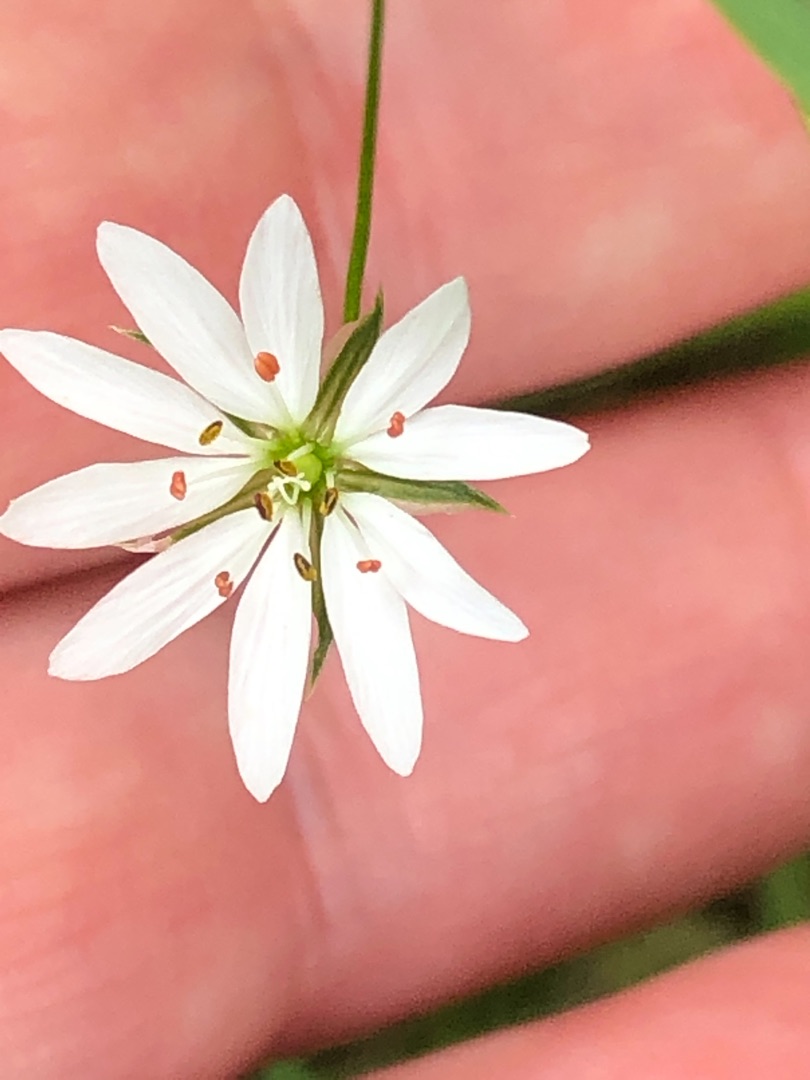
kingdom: Plantae
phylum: Tracheophyta
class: Magnoliopsida
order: Caryophyllales
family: Caryophyllaceae
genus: Stellaria
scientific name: Stellaria palustris
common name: Kær-fladstjerne
